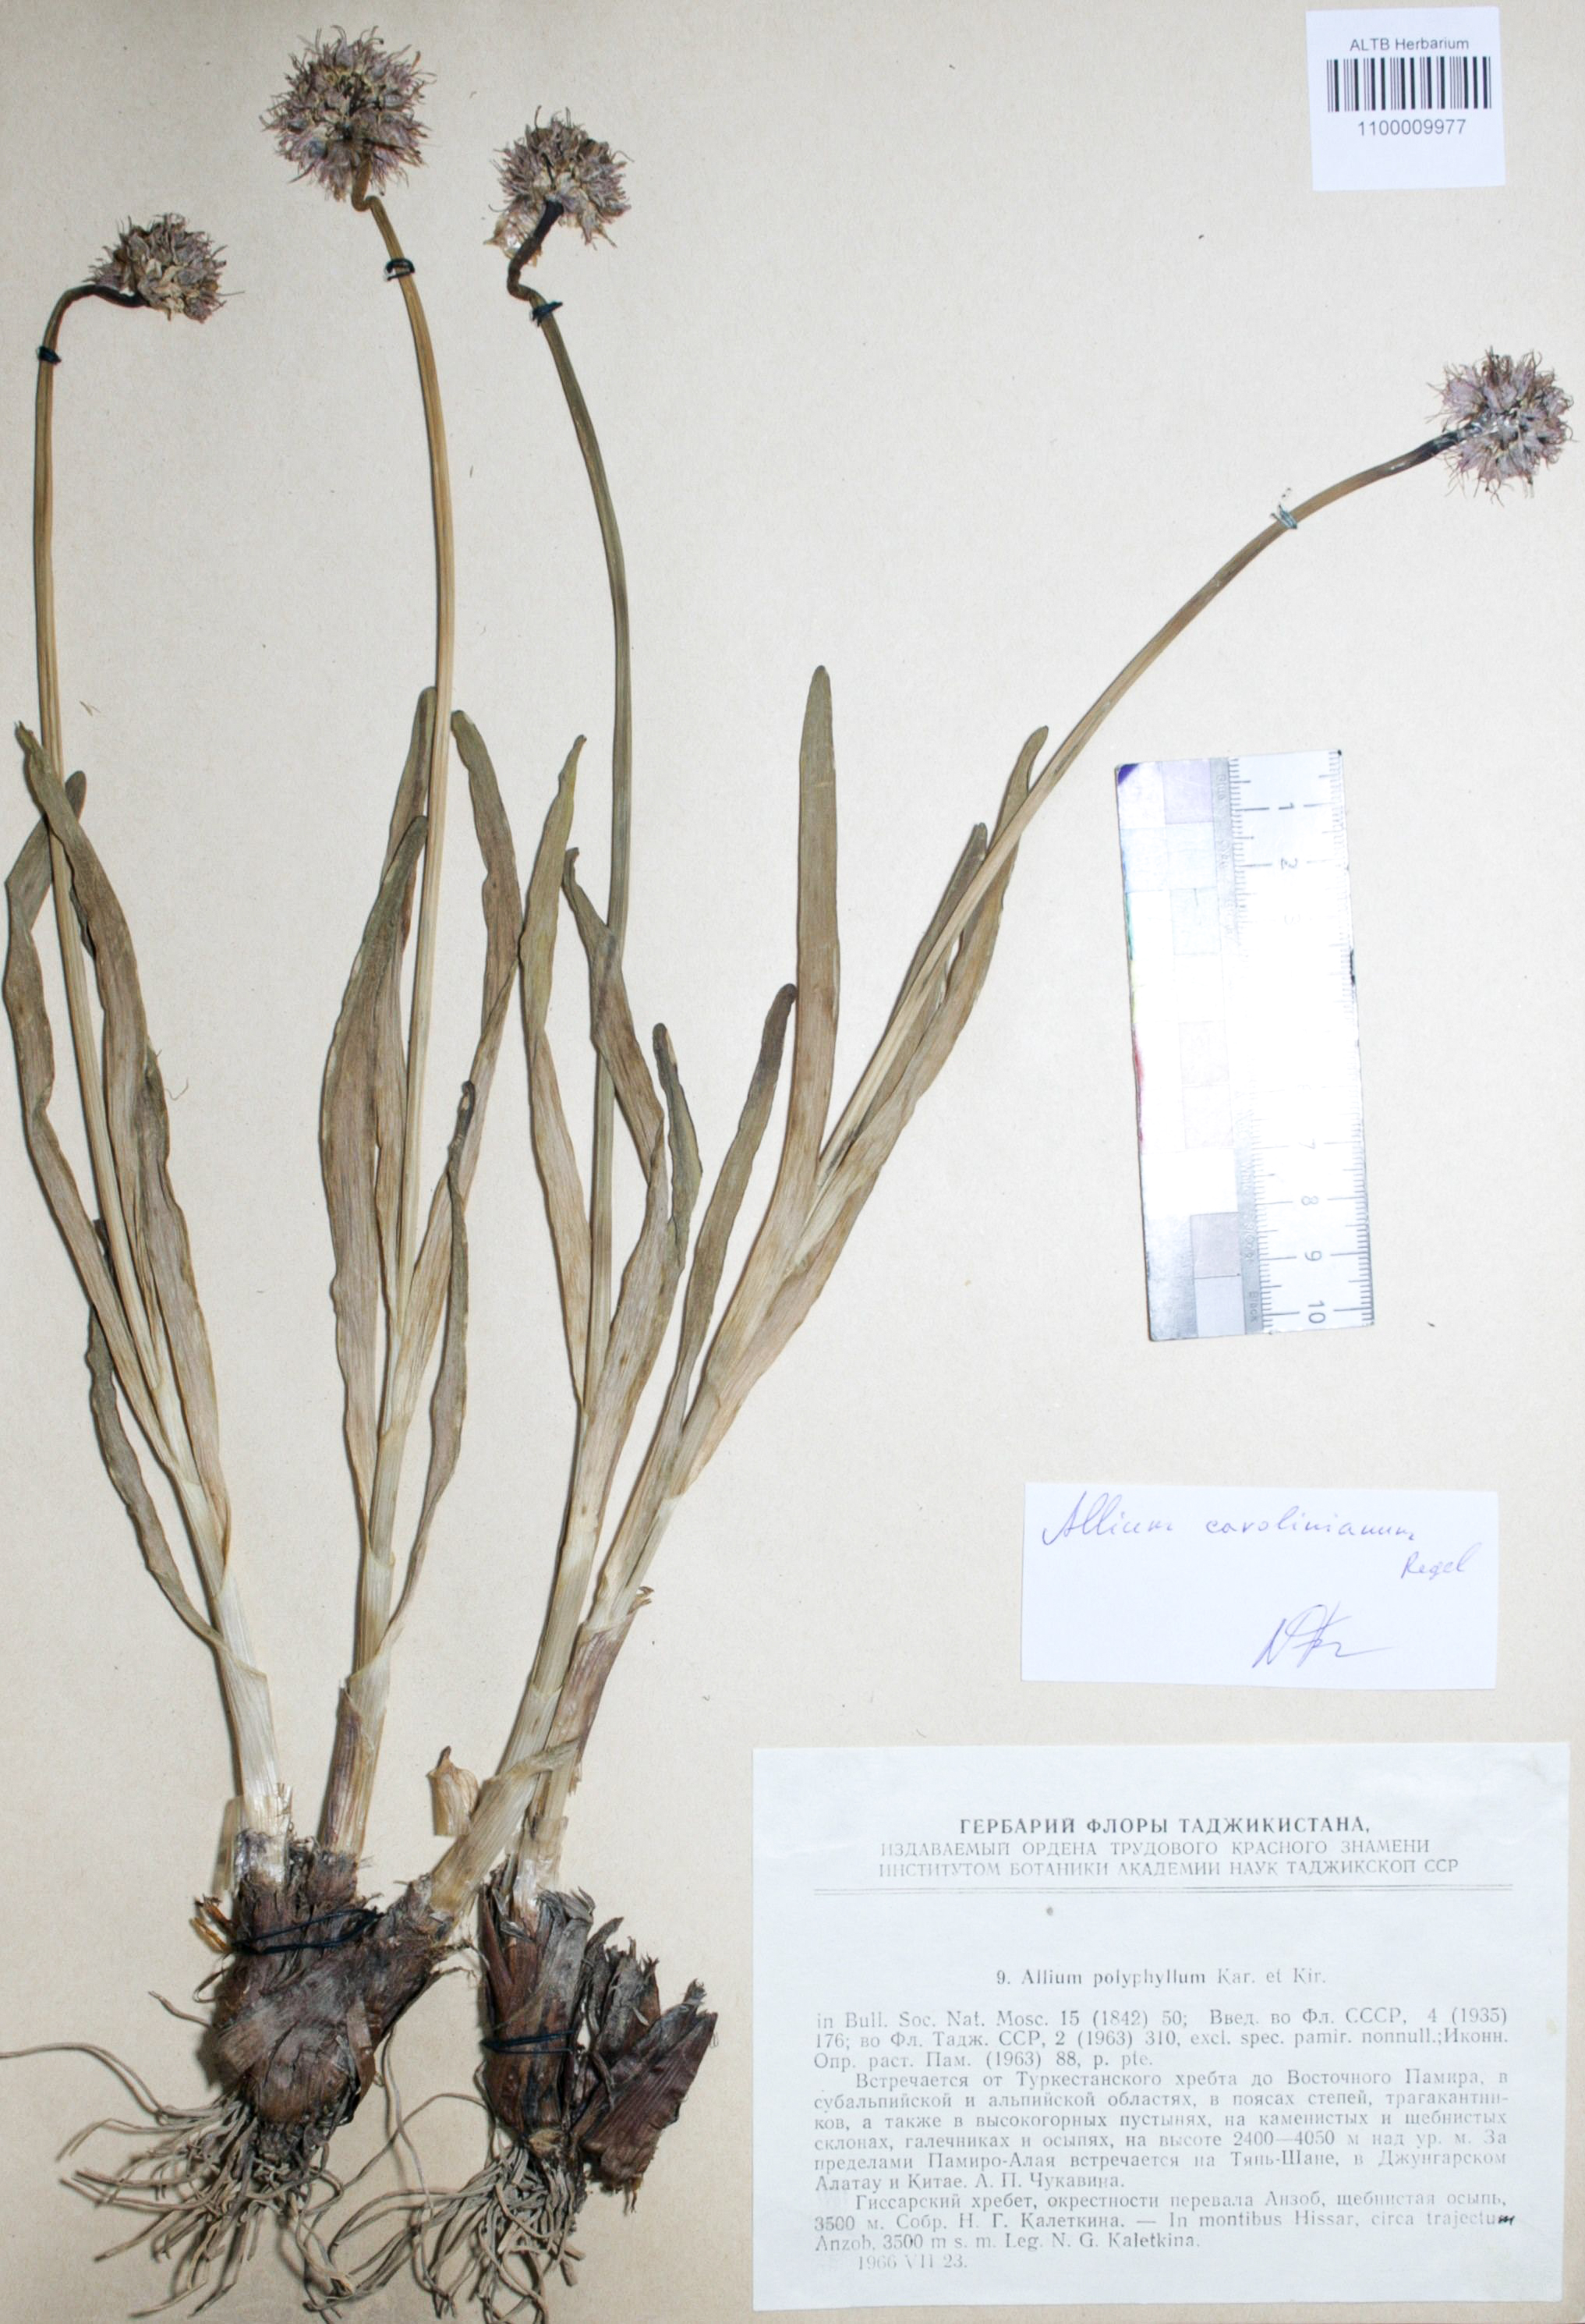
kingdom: Plantae
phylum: Tracheophyta
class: Liliopsida
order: Asparagales
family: Amaryllidaceae
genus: Allium
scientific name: Allium carolinianum
